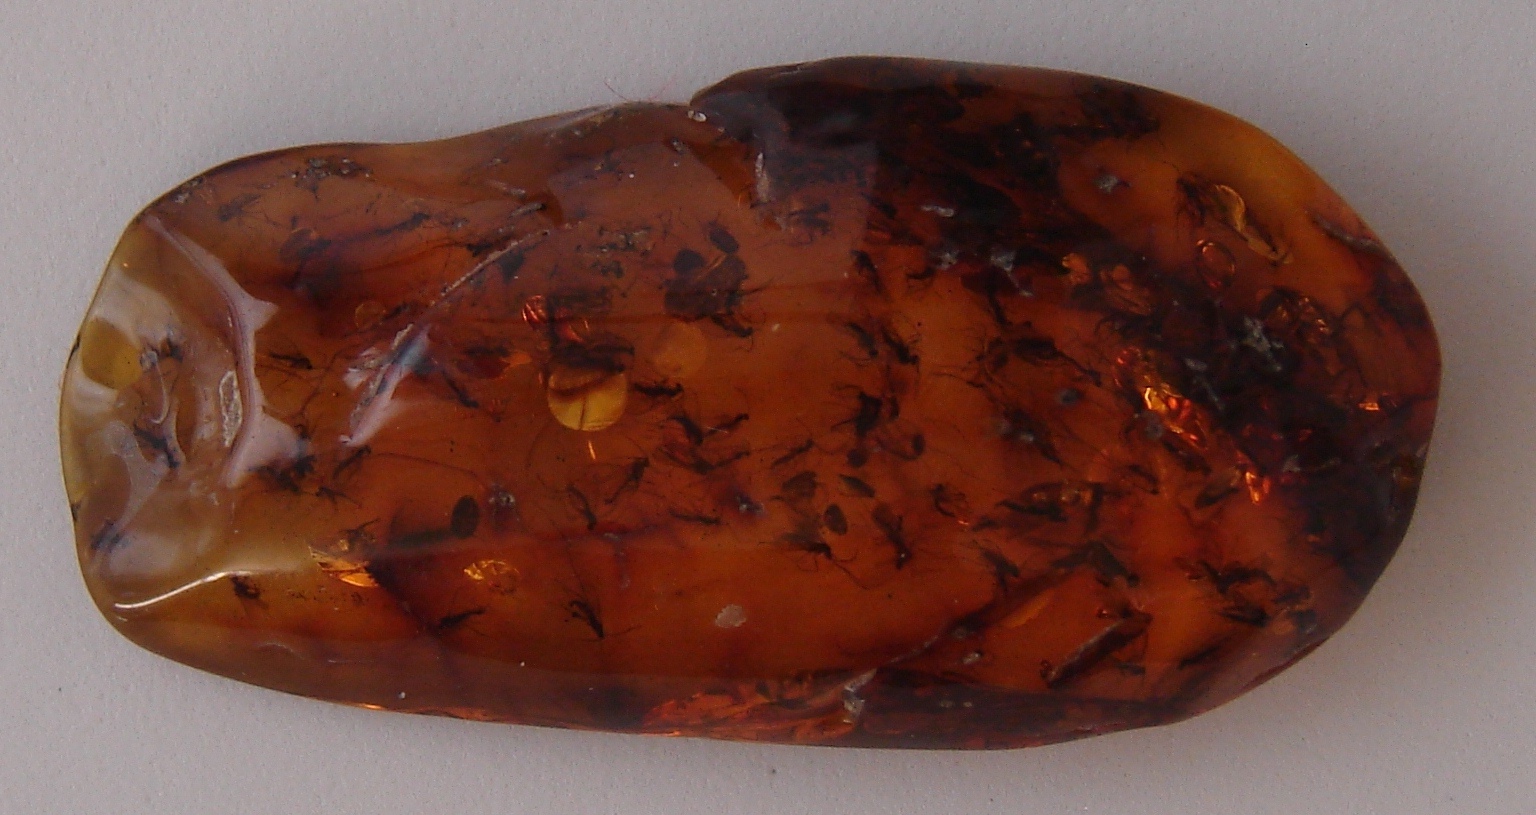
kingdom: Animalia
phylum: Arthropoda
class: Insecta
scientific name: Insecta
